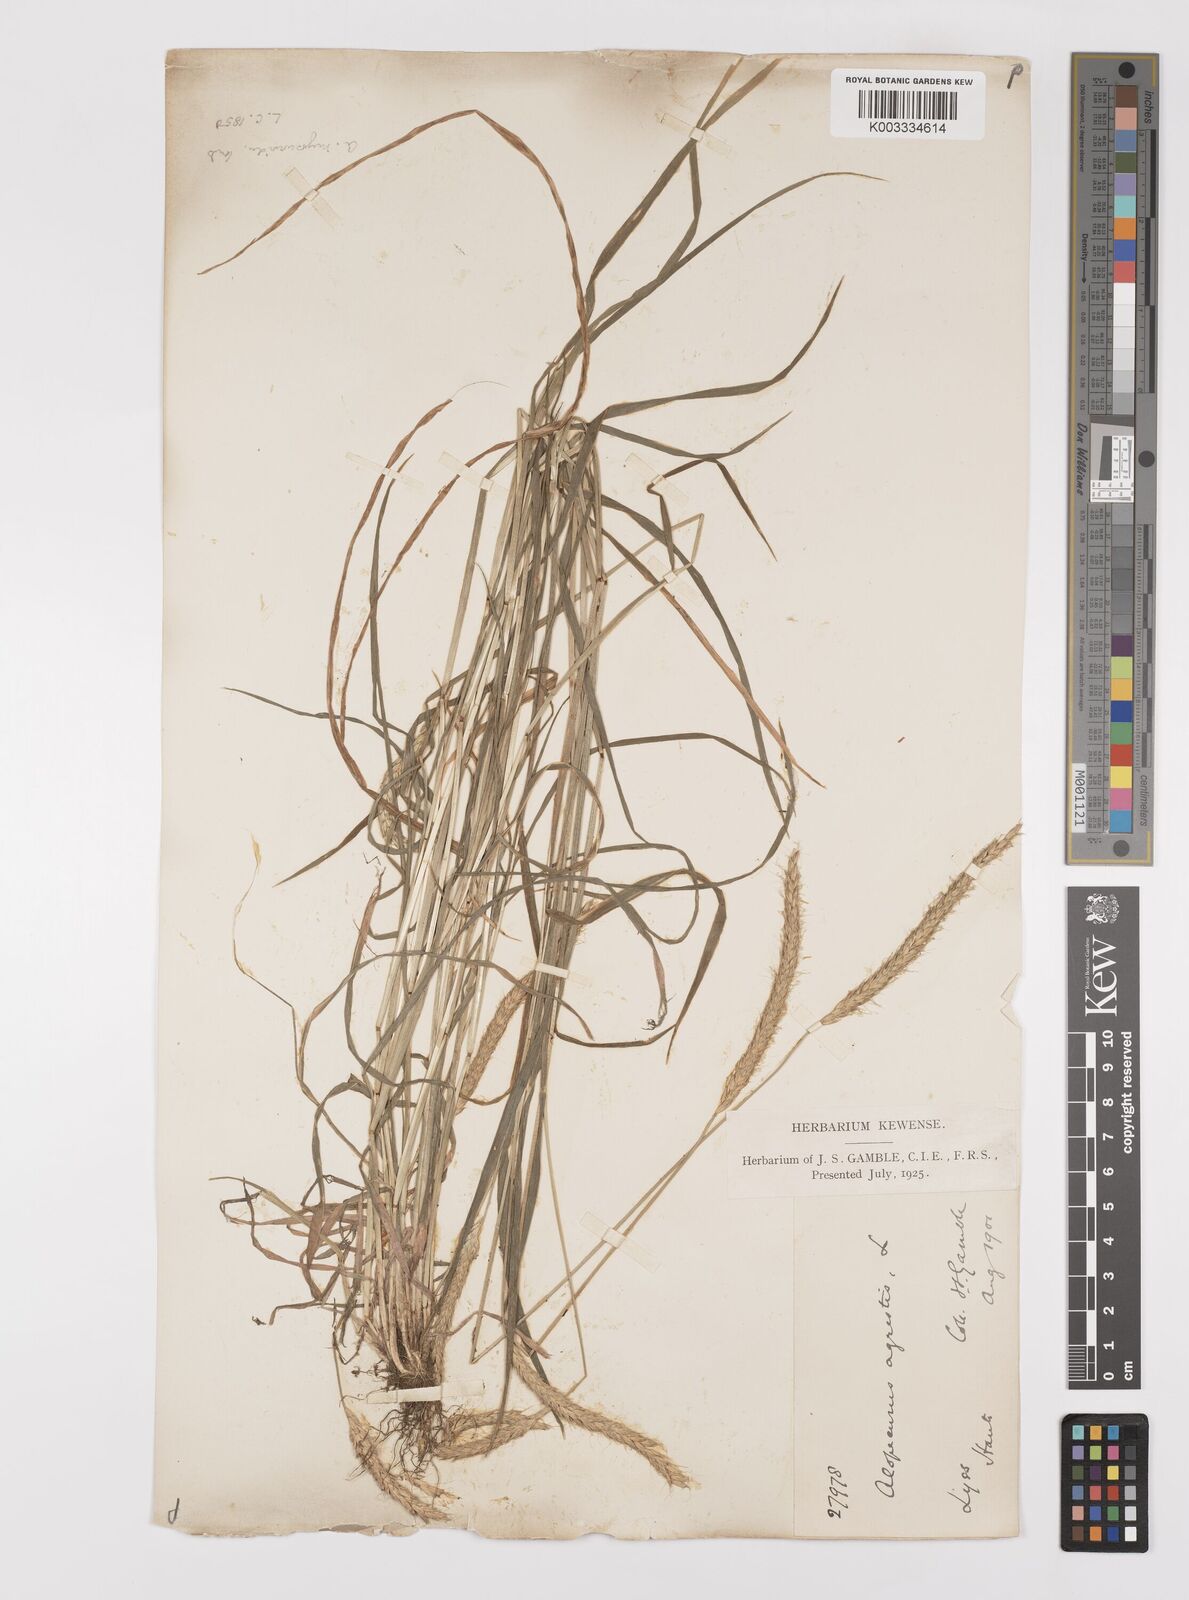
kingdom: Plantae
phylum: Tracheophyta
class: Liliopsida
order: Poales
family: Poaceae
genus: Alopecurus
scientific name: Alopecurus myosuroides
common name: Black-grass
